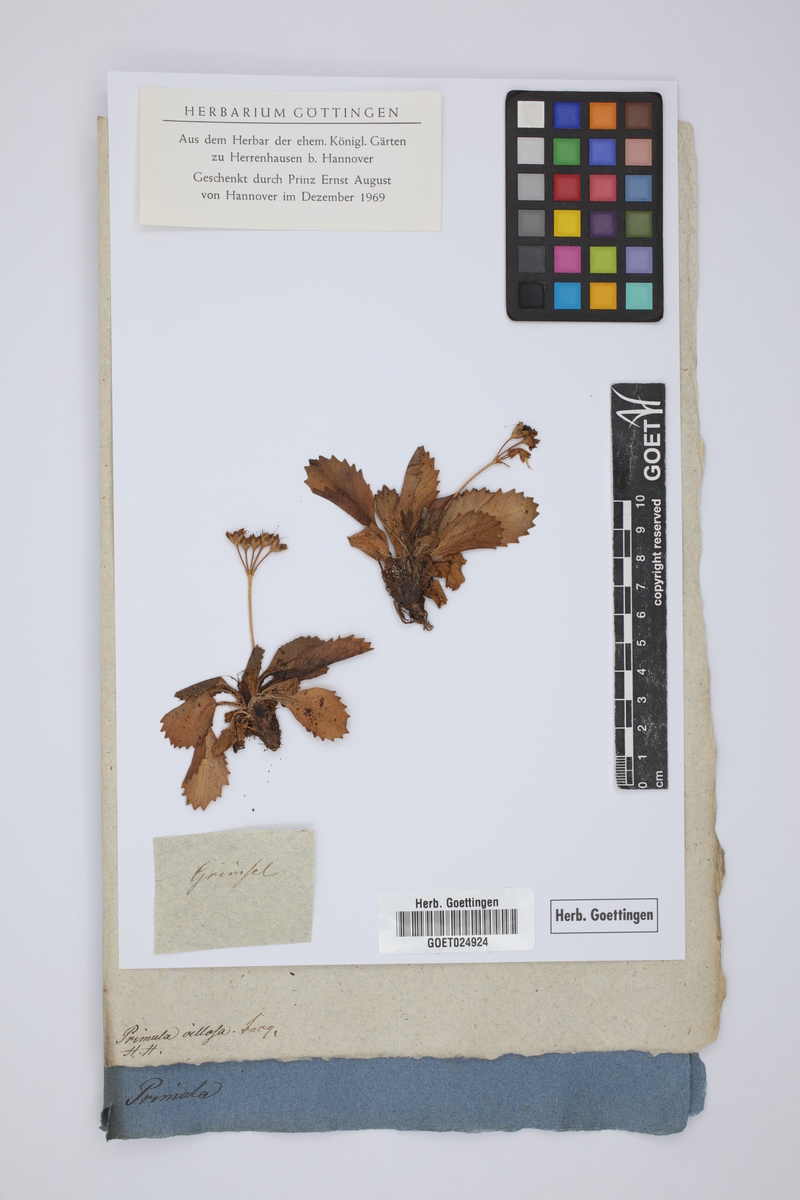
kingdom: Plantae
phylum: Tracheophyta
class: Magnoliopsida
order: Ericales
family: Primulaceae
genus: Primula
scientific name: Primula villosa
